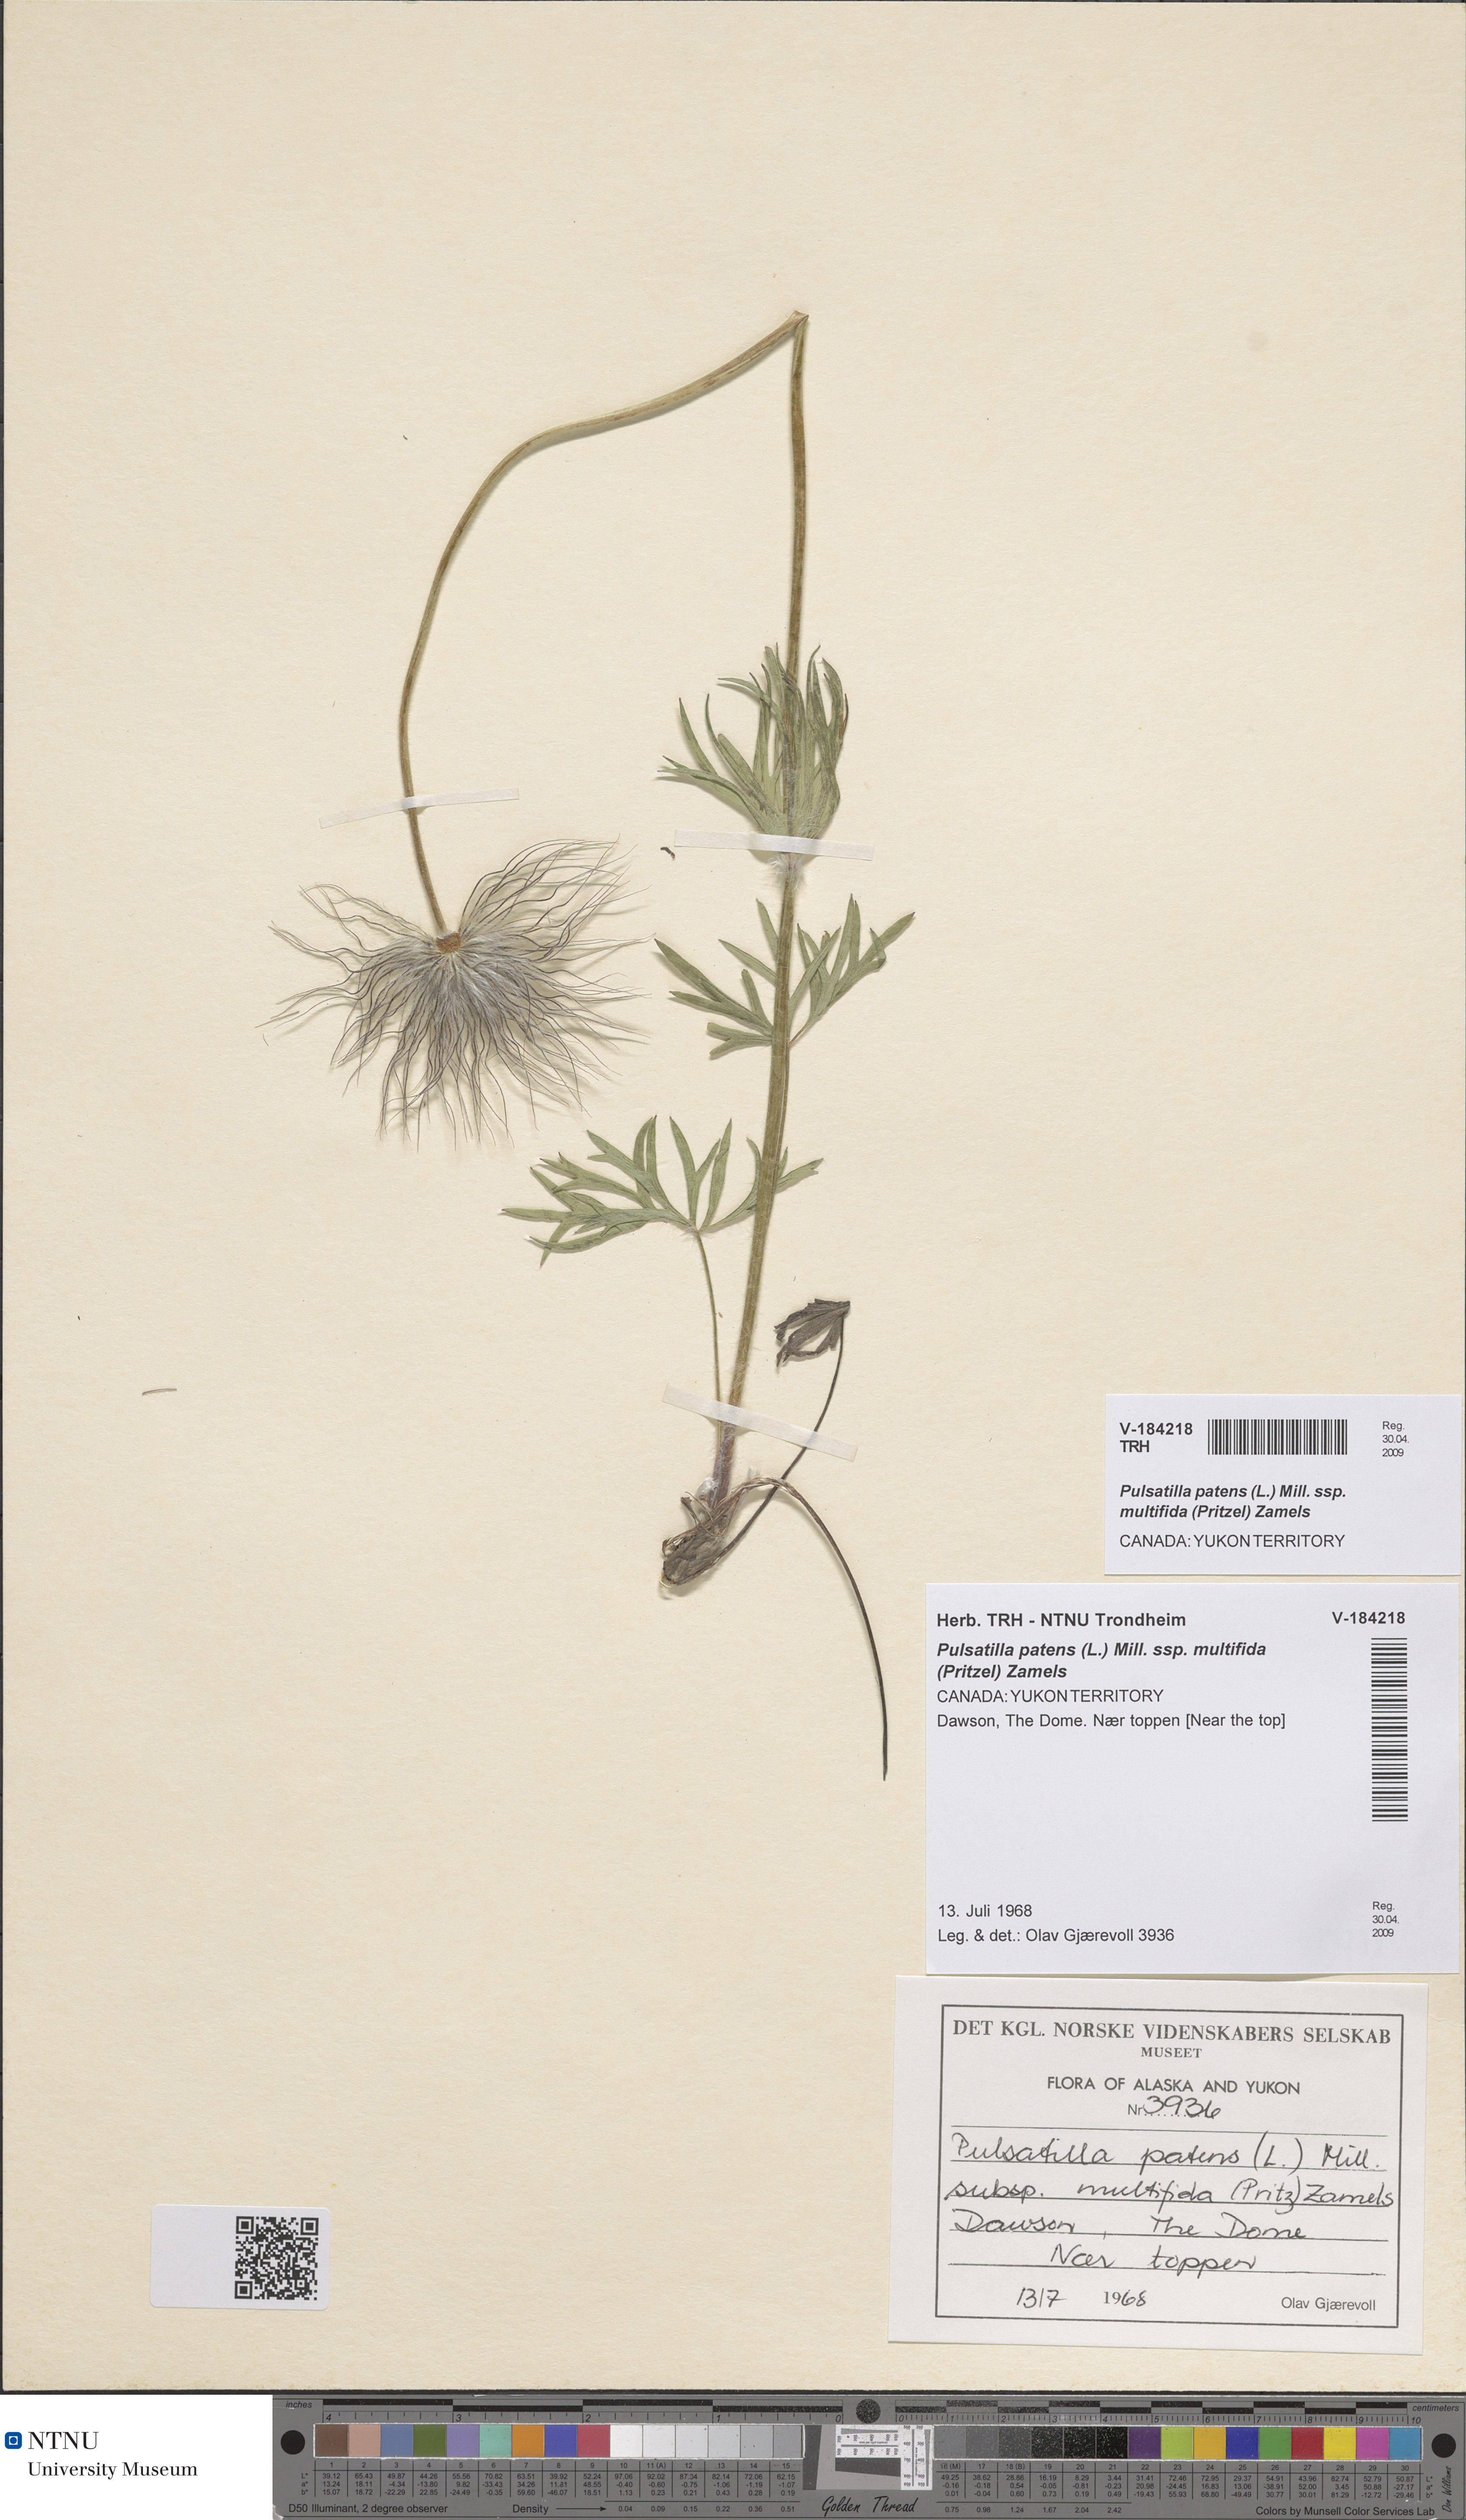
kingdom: Plantae
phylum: Tracheophyta
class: Magnoliopsida
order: Ranunculales
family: Ranunculaceae
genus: Pulsatilla
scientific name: Pulsatilla patens
